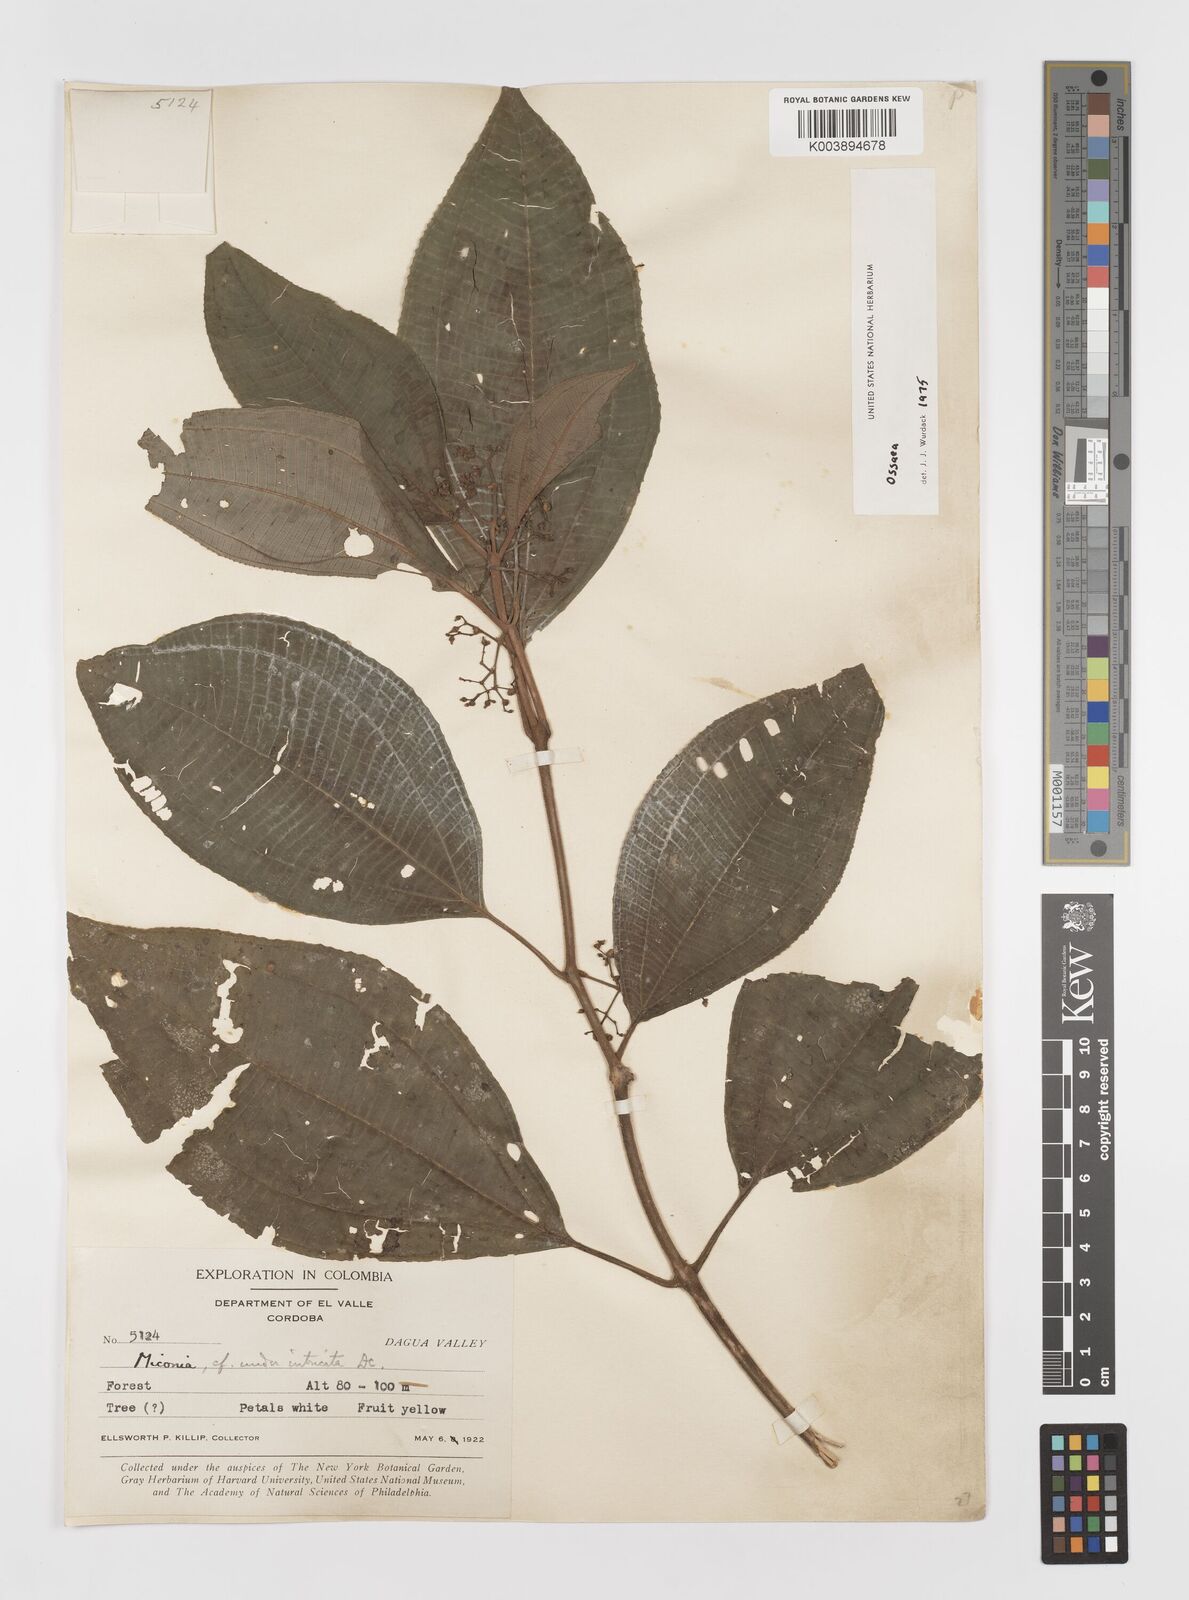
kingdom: Plantae
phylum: Tracheophyta
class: Magnoliopsida
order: Myrtales
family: Melastomataceae
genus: Ossaea
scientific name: Ossaea
